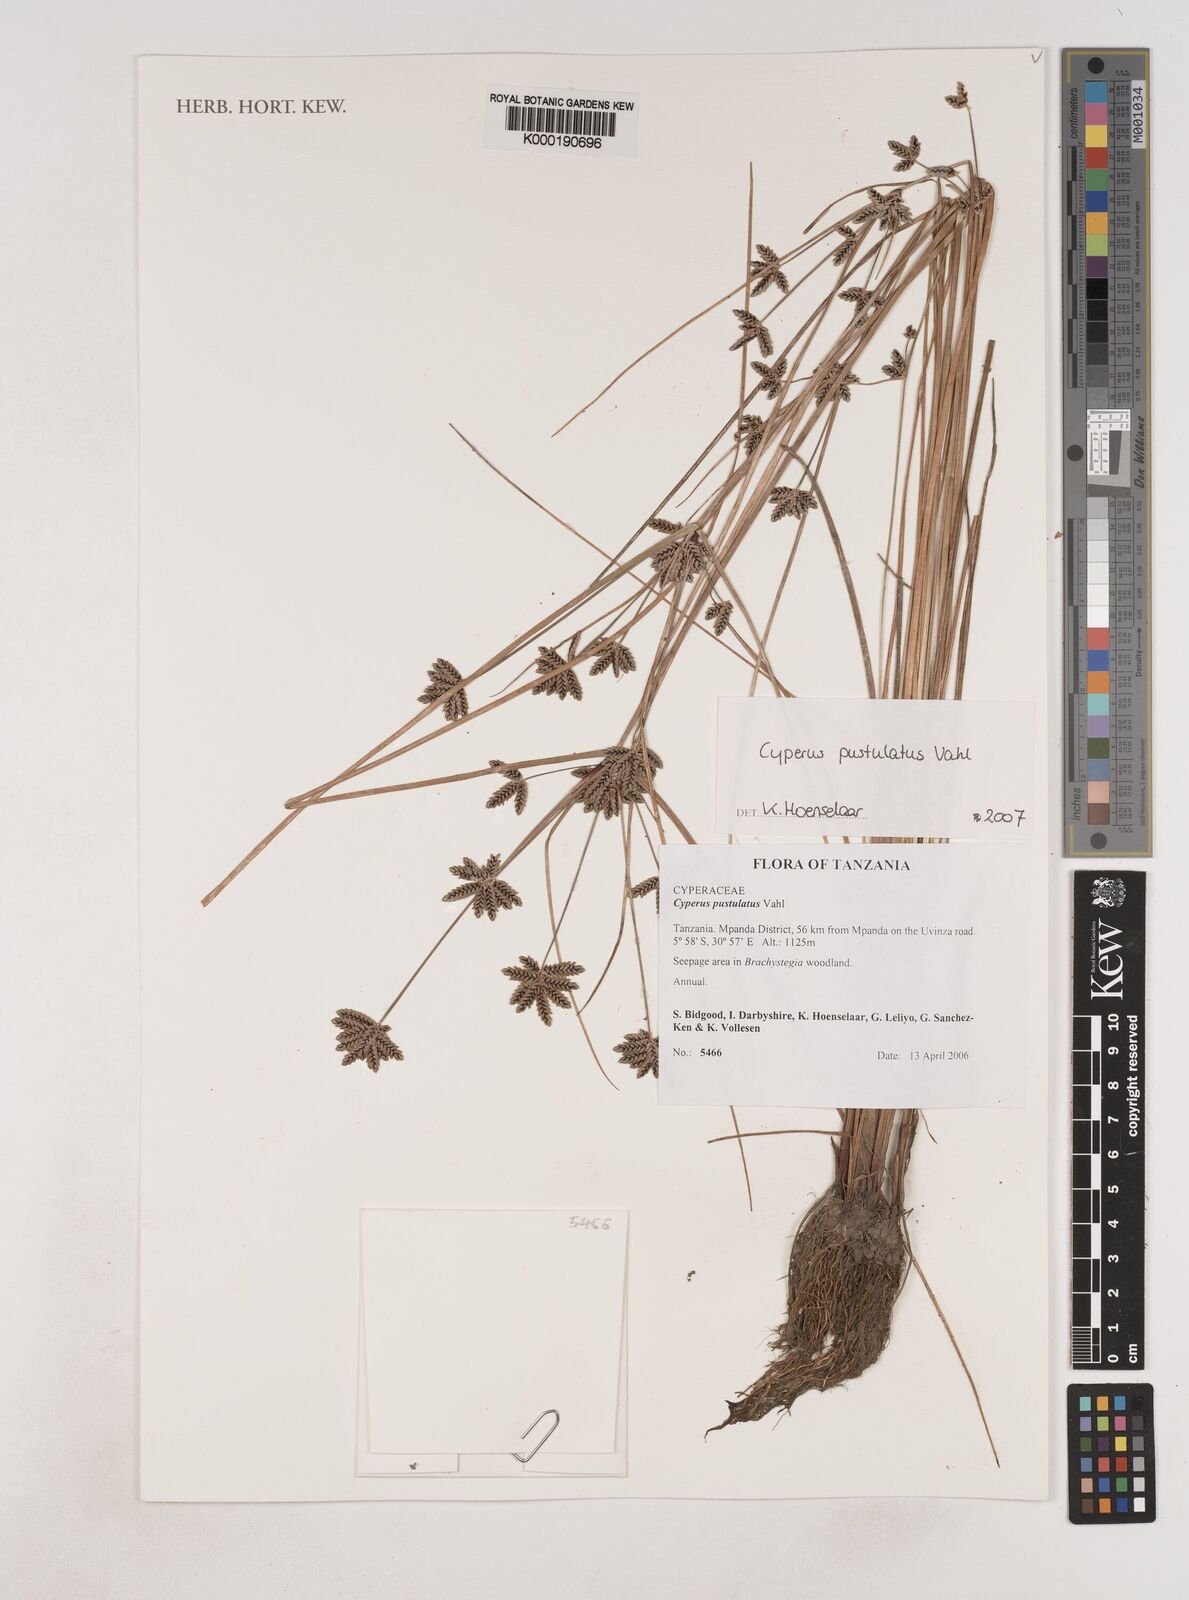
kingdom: Plantae
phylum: Tracheophyta
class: Liliopsida
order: Poales
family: Cyperaceae
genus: Cyperus
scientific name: Cyperus pustulatus
